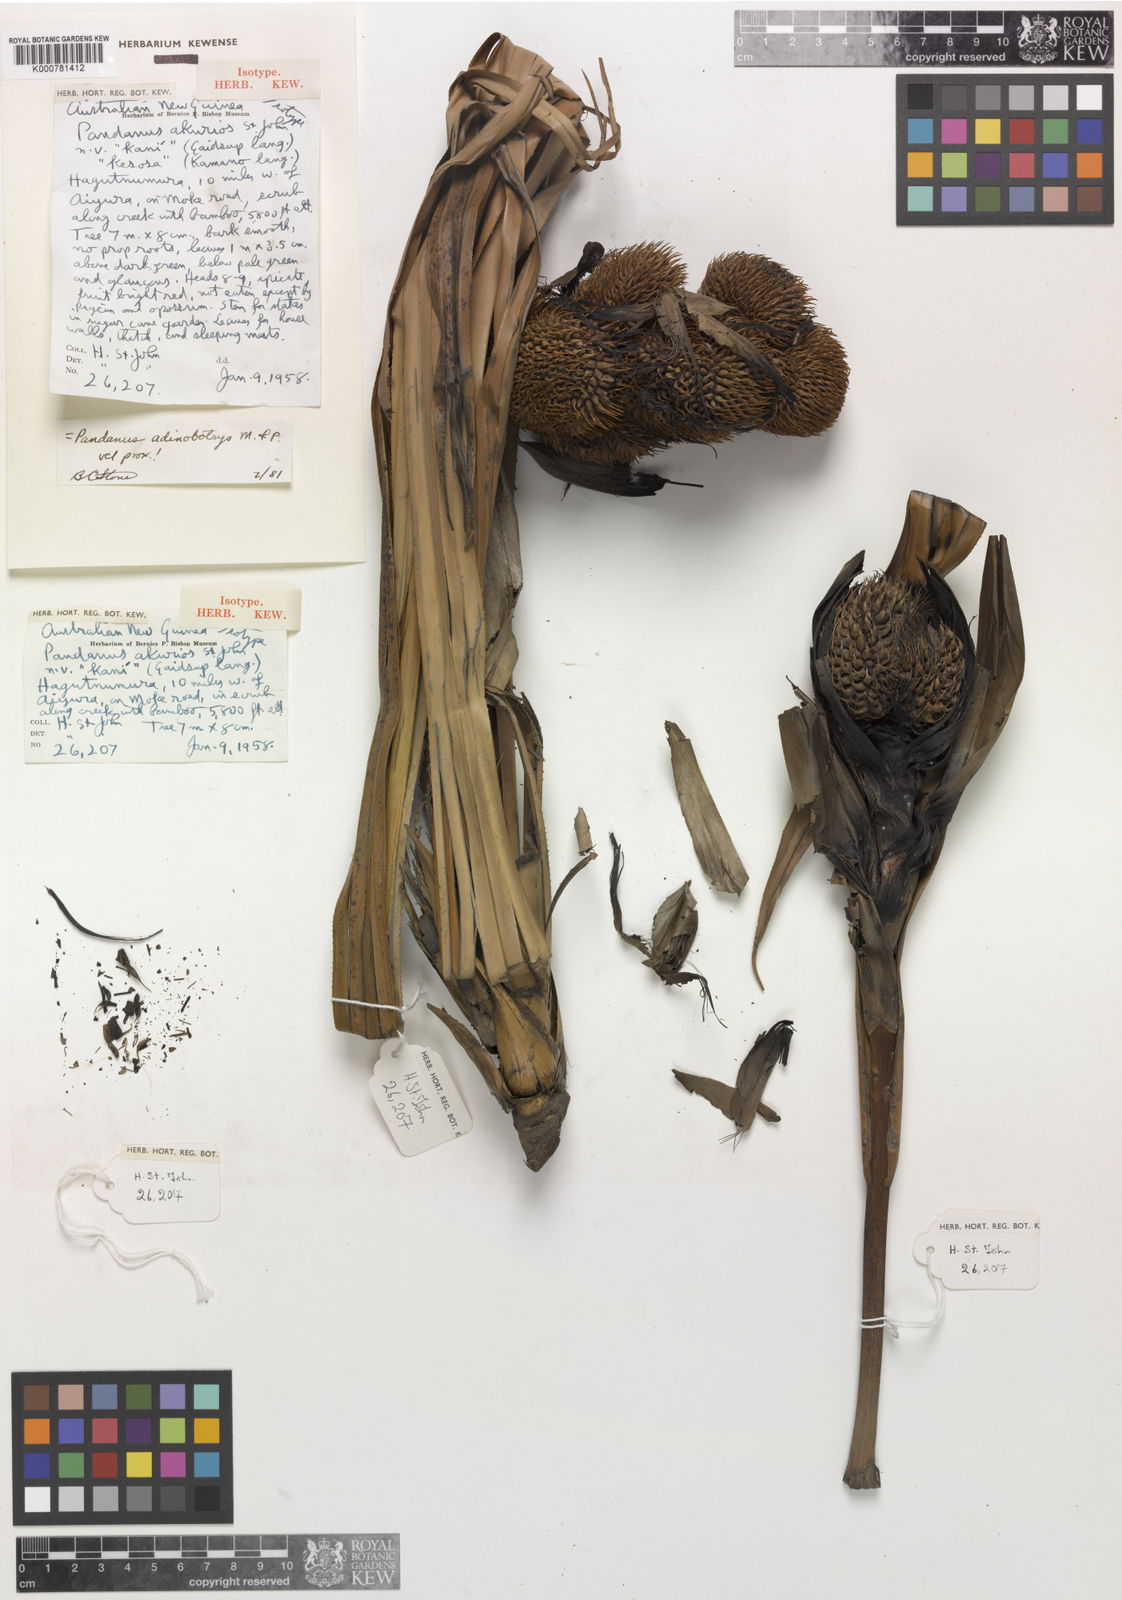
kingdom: Plantae
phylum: Tracheophyta
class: Liliopsida
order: Pandanales
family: Pandanaceae
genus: Pandanus
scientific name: Pandanus archboldianus
